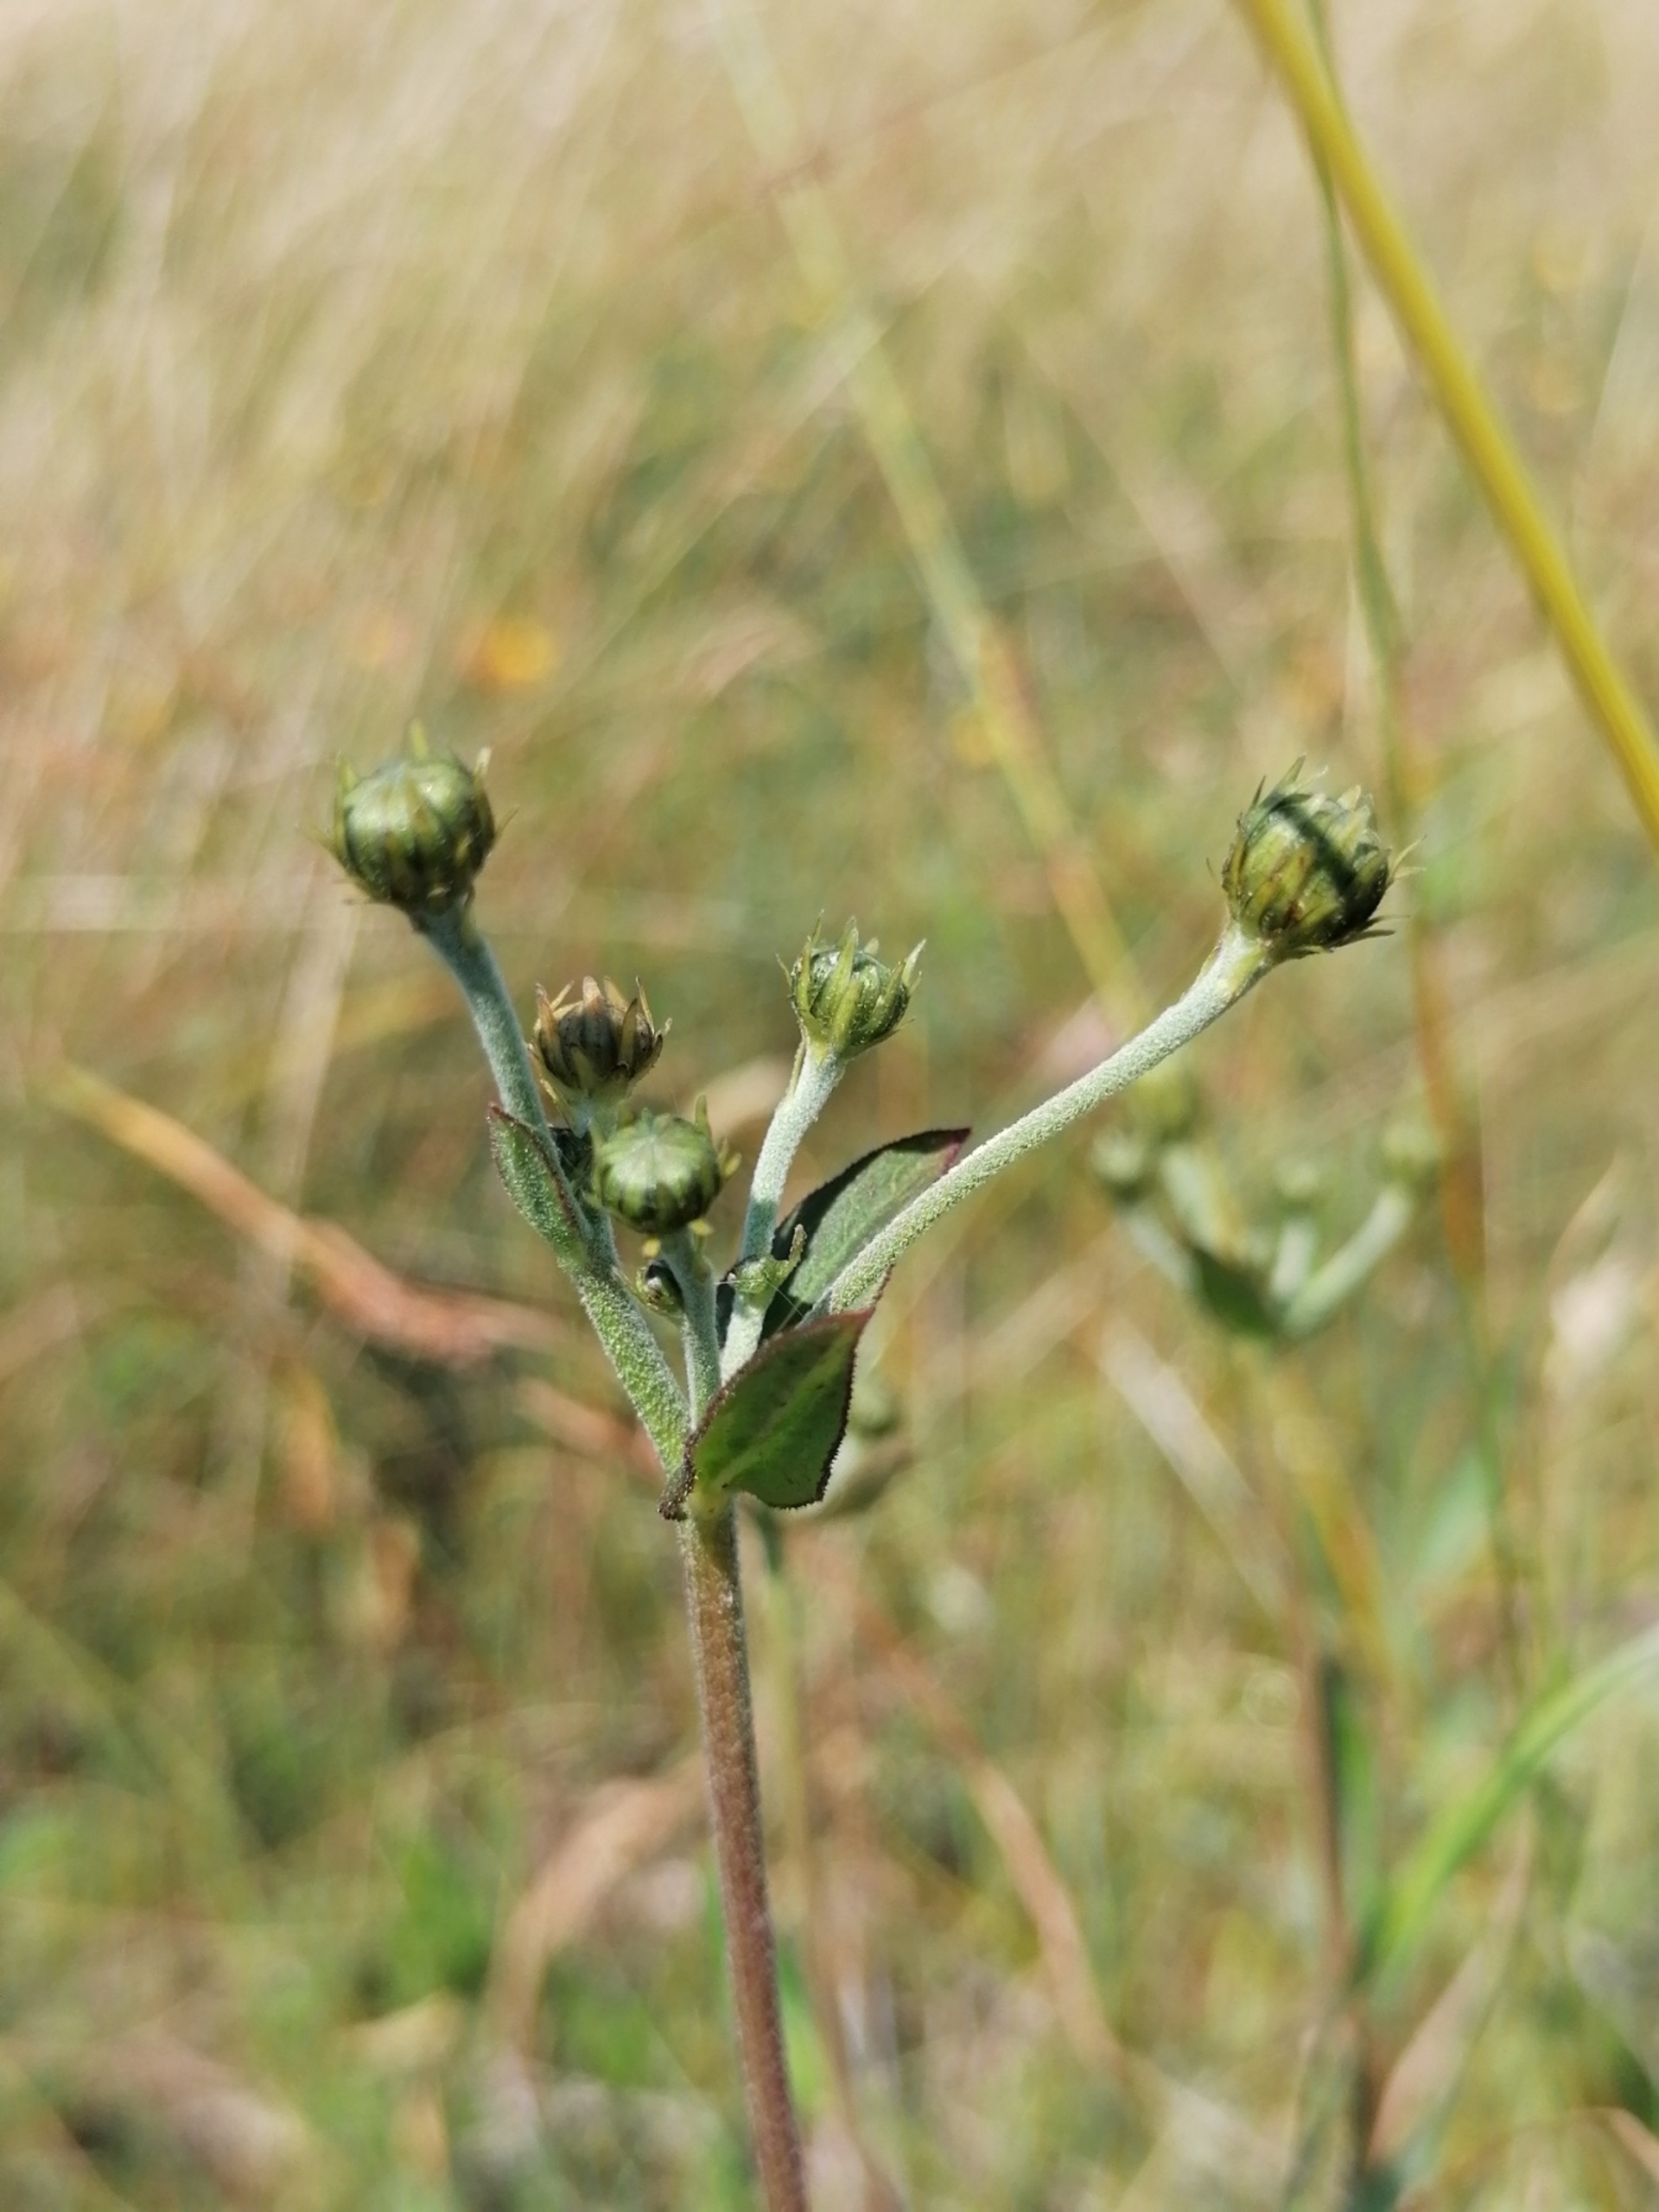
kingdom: Plantae
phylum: Tracheophyta
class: Magnoliopsida
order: Asterales
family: Asteraceae
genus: Hieracium
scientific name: Hieracium umbellatum
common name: Smalbladet høgeurt
